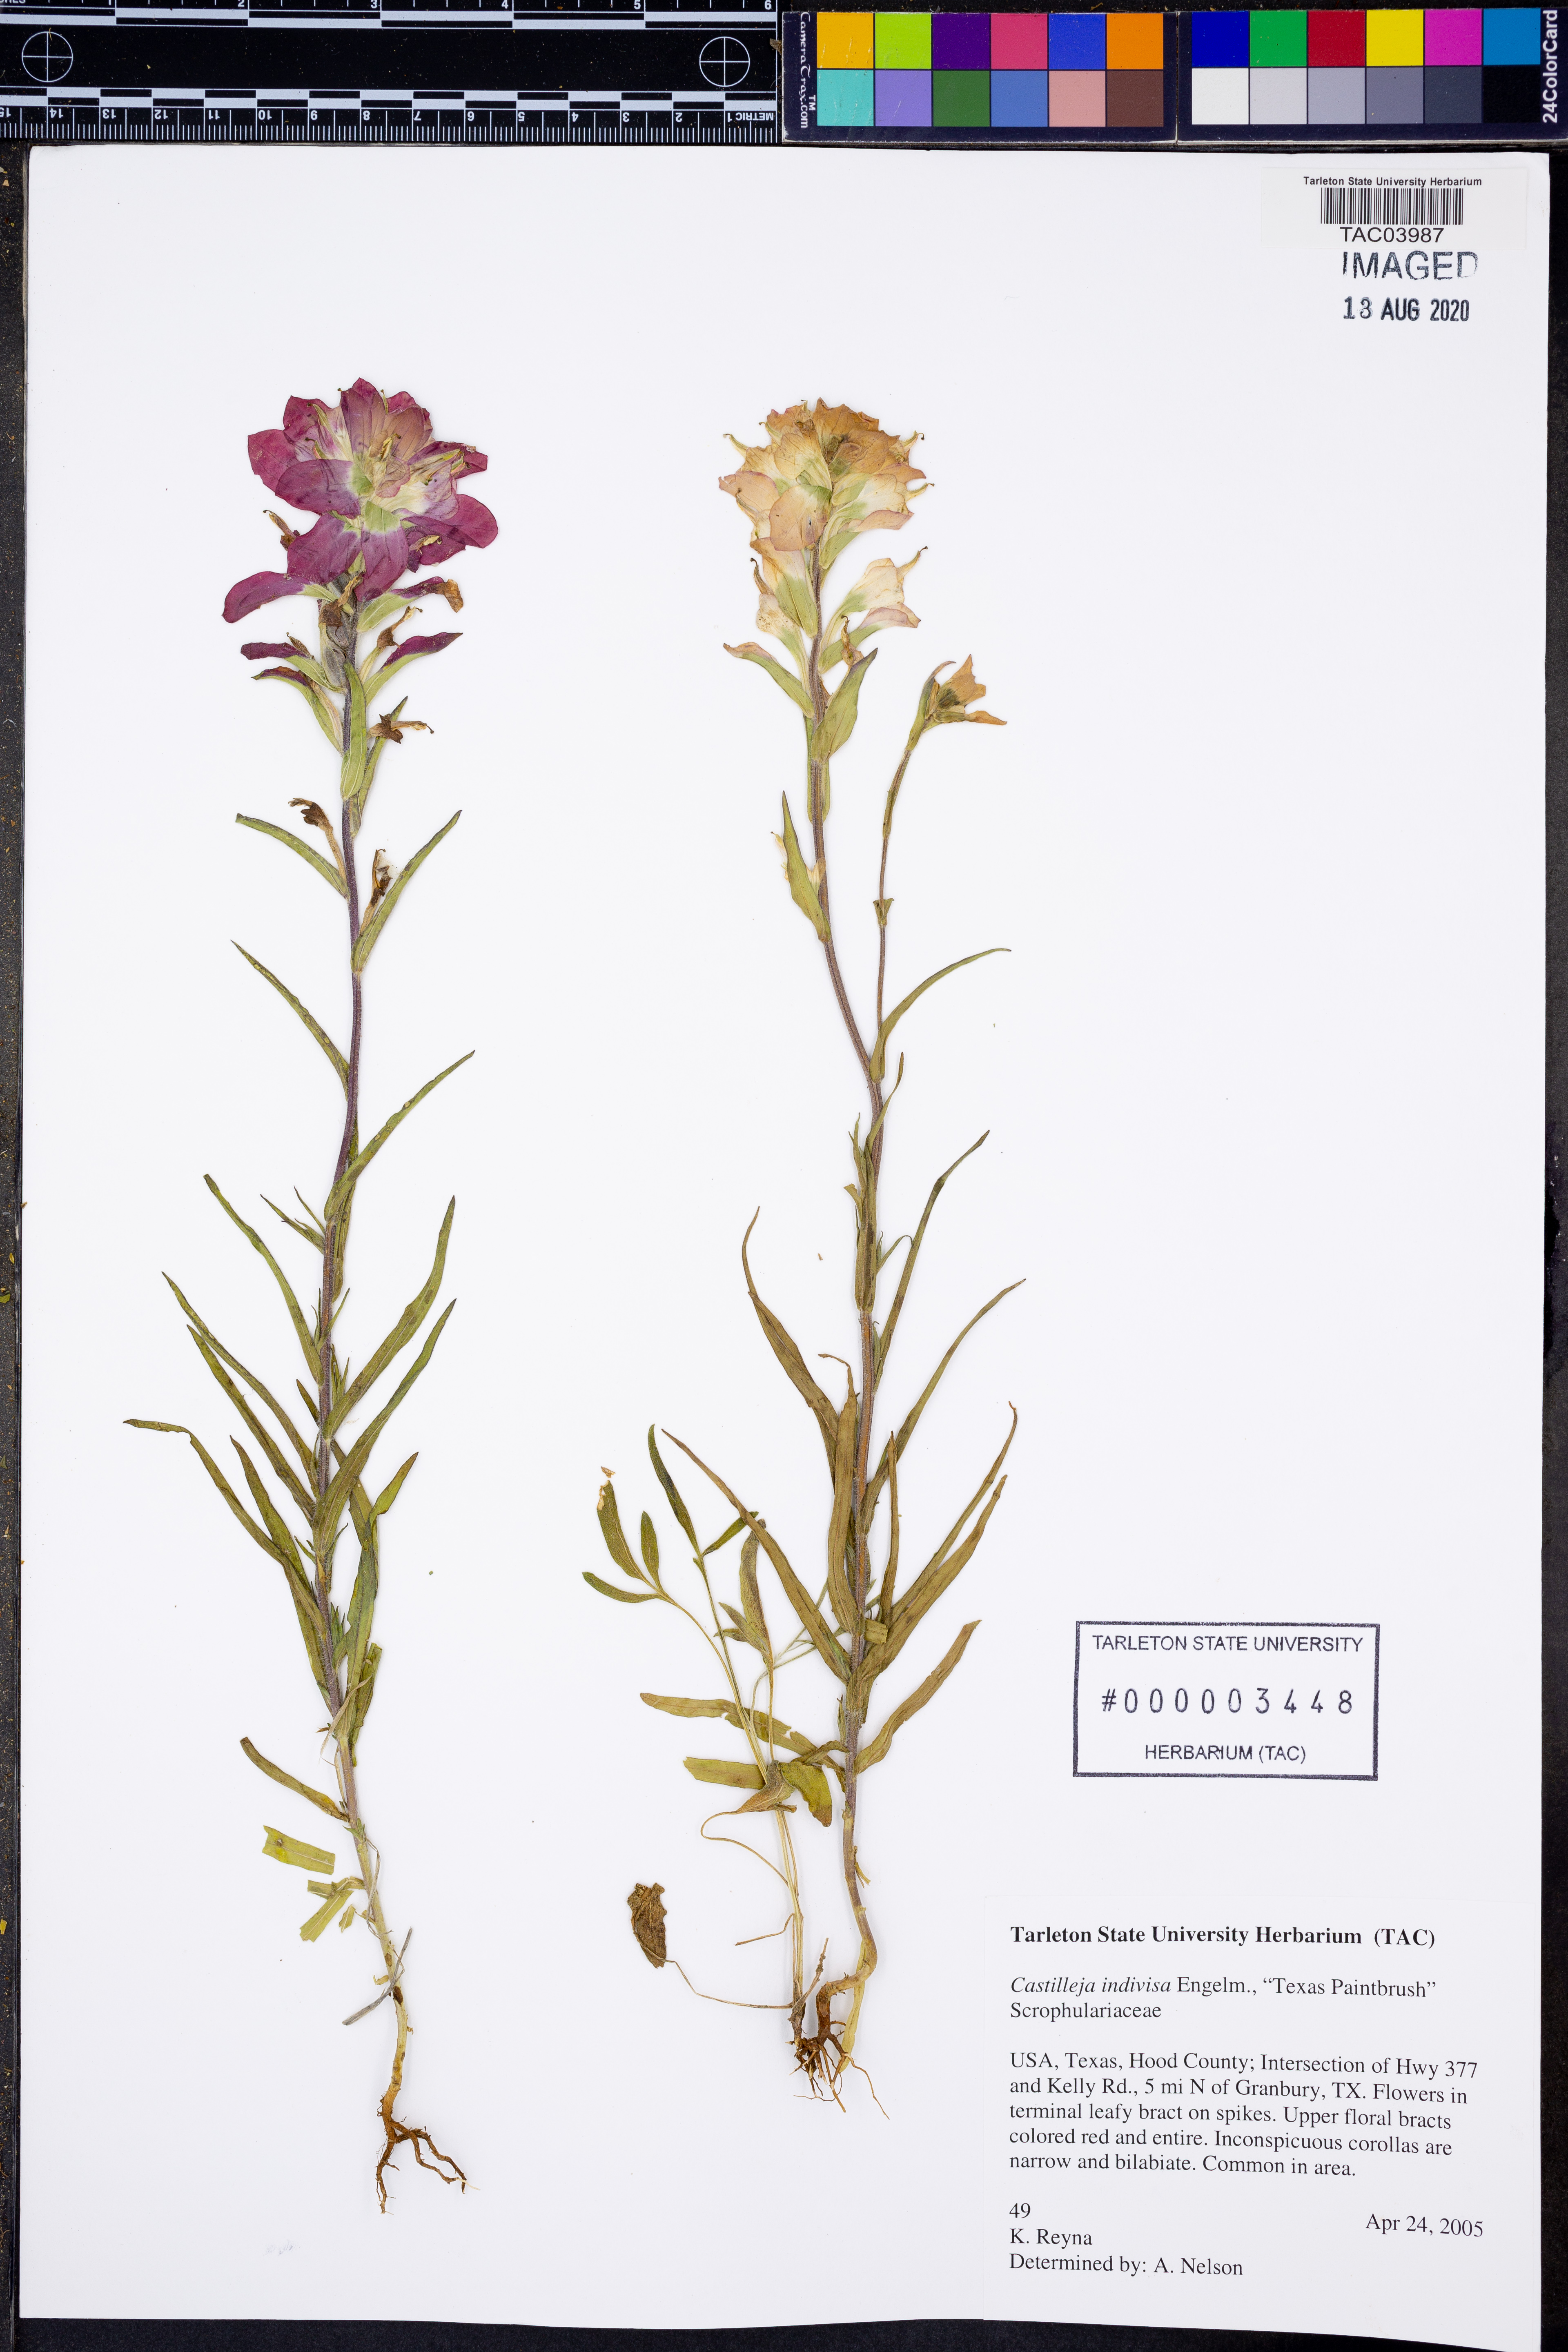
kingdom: Plantae
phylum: Tracheophyta
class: Magnoliopsida
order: Lamiales
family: Orobanchaceae
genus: Castilleja
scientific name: Castilleja indivisa
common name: Texas paintbrush
